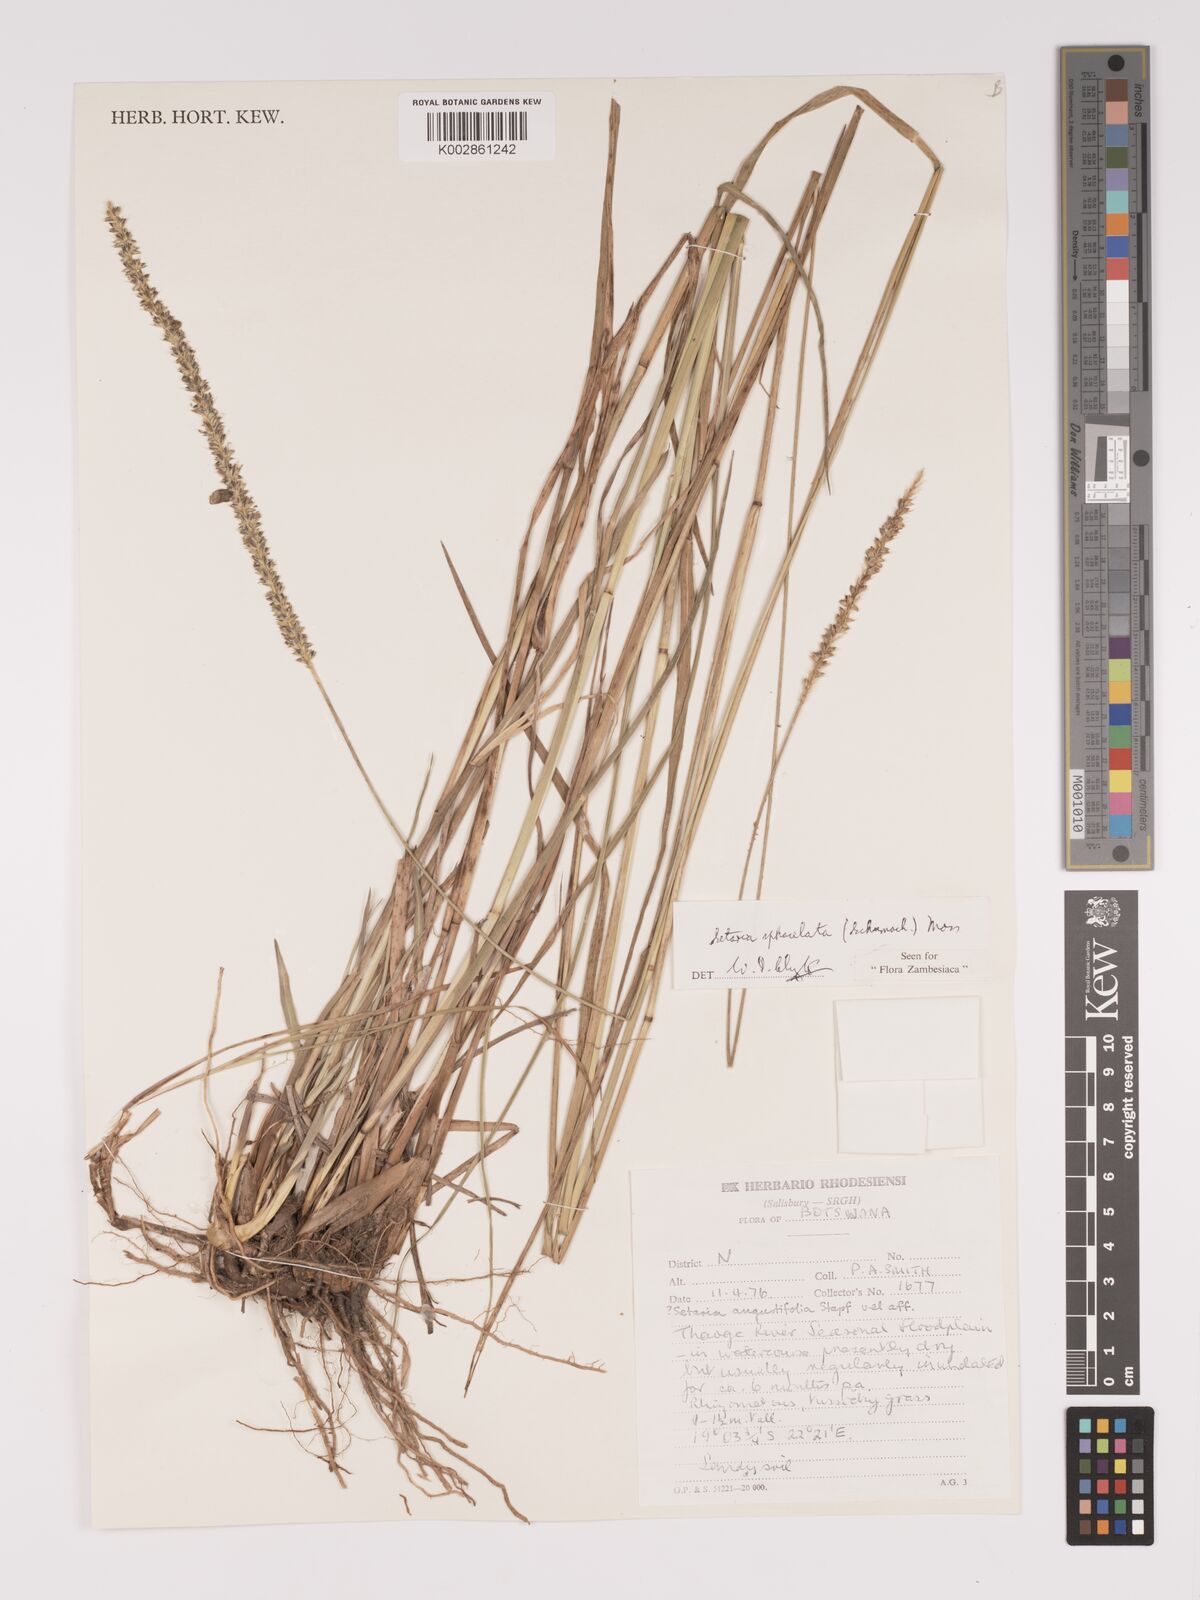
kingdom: Plantae
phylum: Tracheophyta
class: Liliopsida
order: Poales
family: Poaceae
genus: Setaria
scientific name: Setaria sphacelata
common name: African bristlegrass
